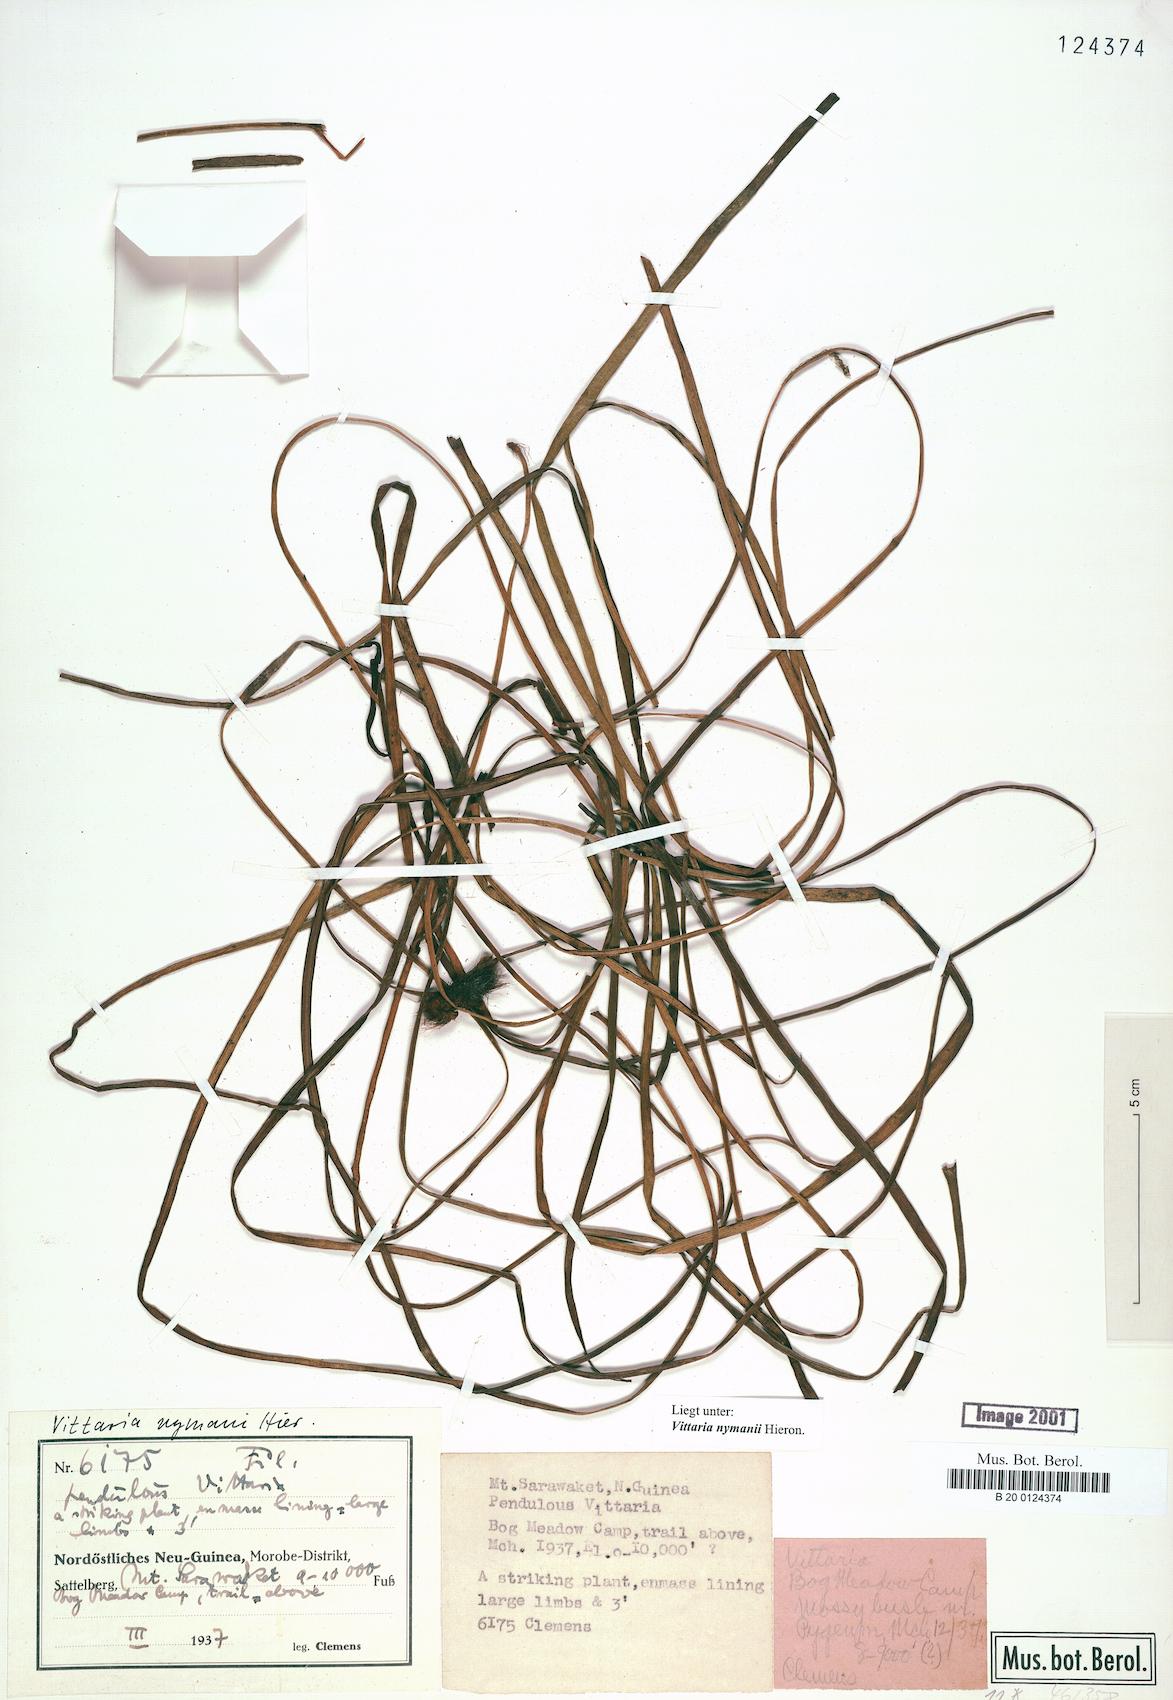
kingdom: Plantae
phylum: Tracheophyta
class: Polypodiopsida
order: Polypodiales
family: Pteridaceae
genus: Haplopteris
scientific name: Haplopteris elongata
